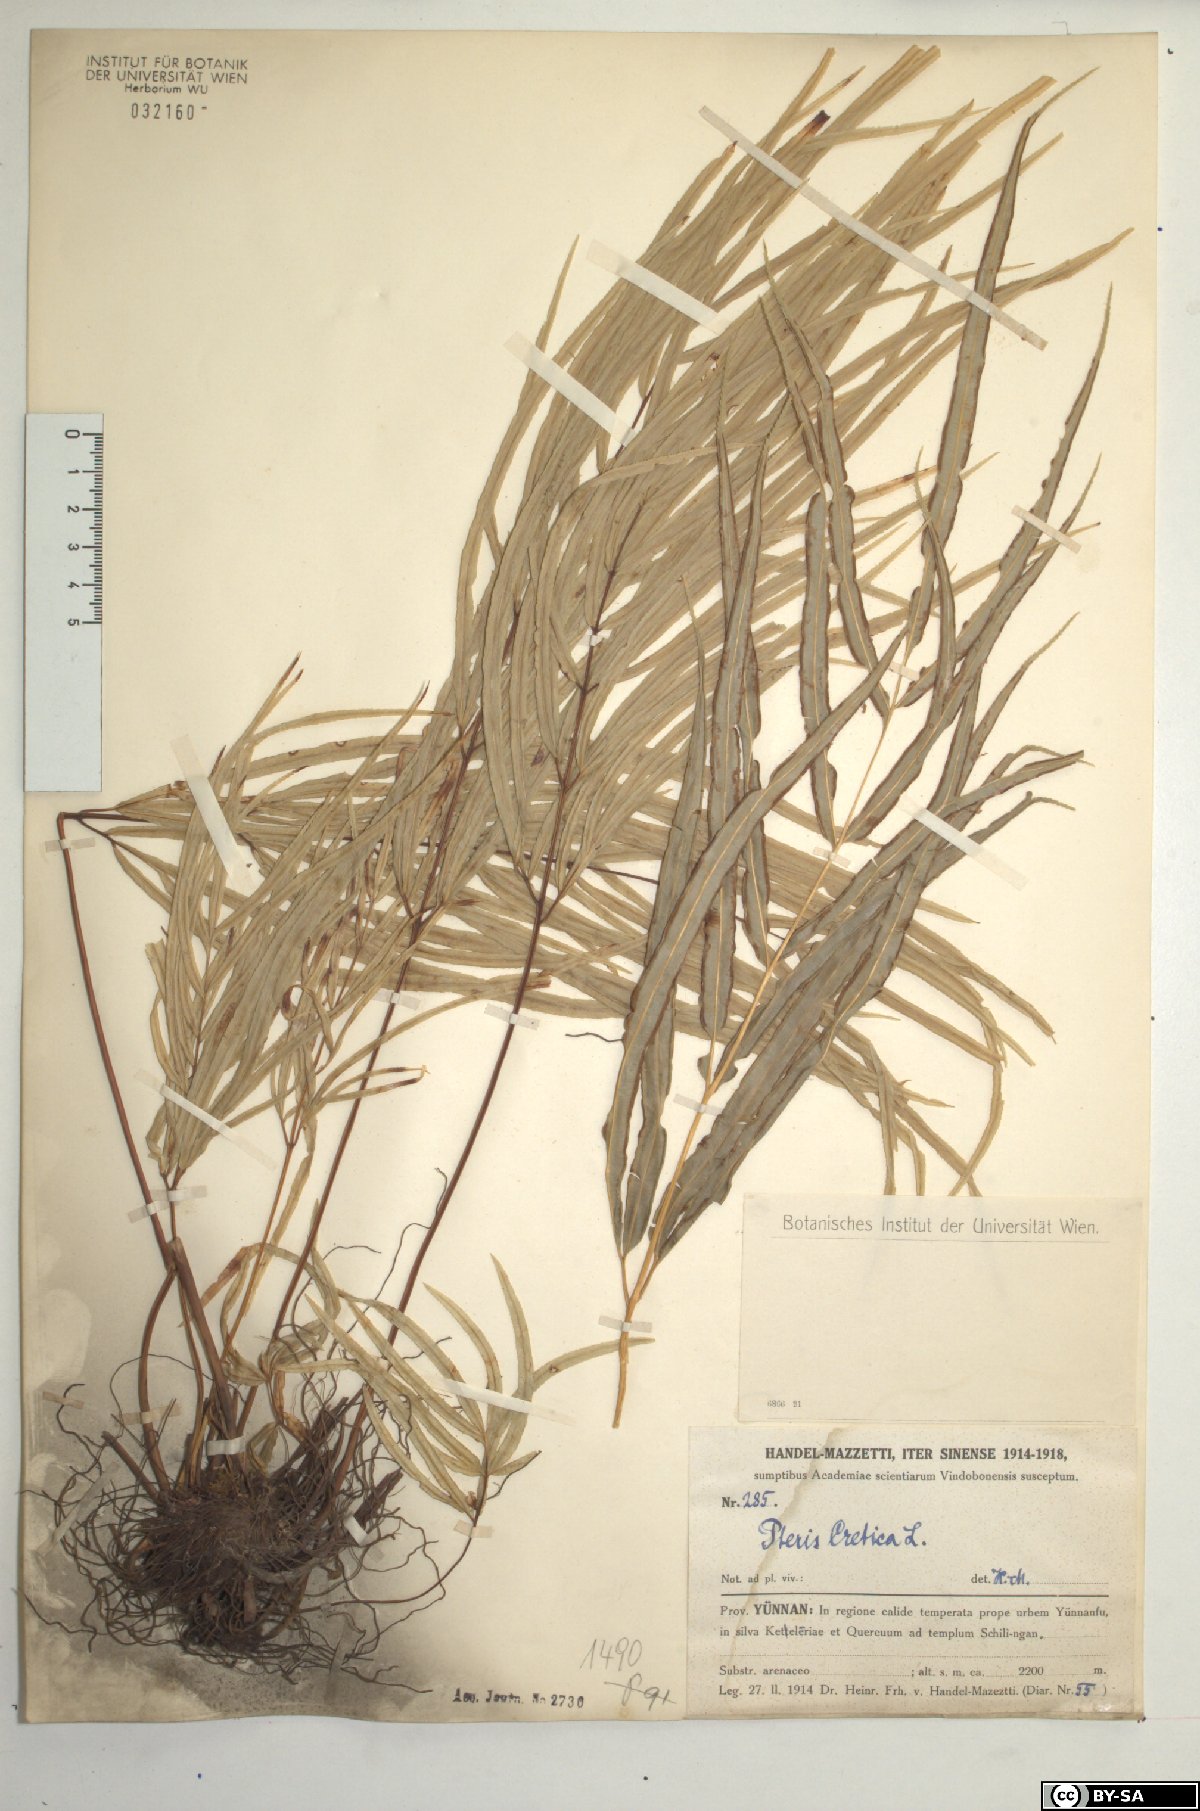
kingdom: Plantae
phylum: Tracheophyta
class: Polypodiopsida
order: Polypodiales
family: Pteridaceae
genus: Pteris
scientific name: Pteris cretica
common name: Ribbon fern
